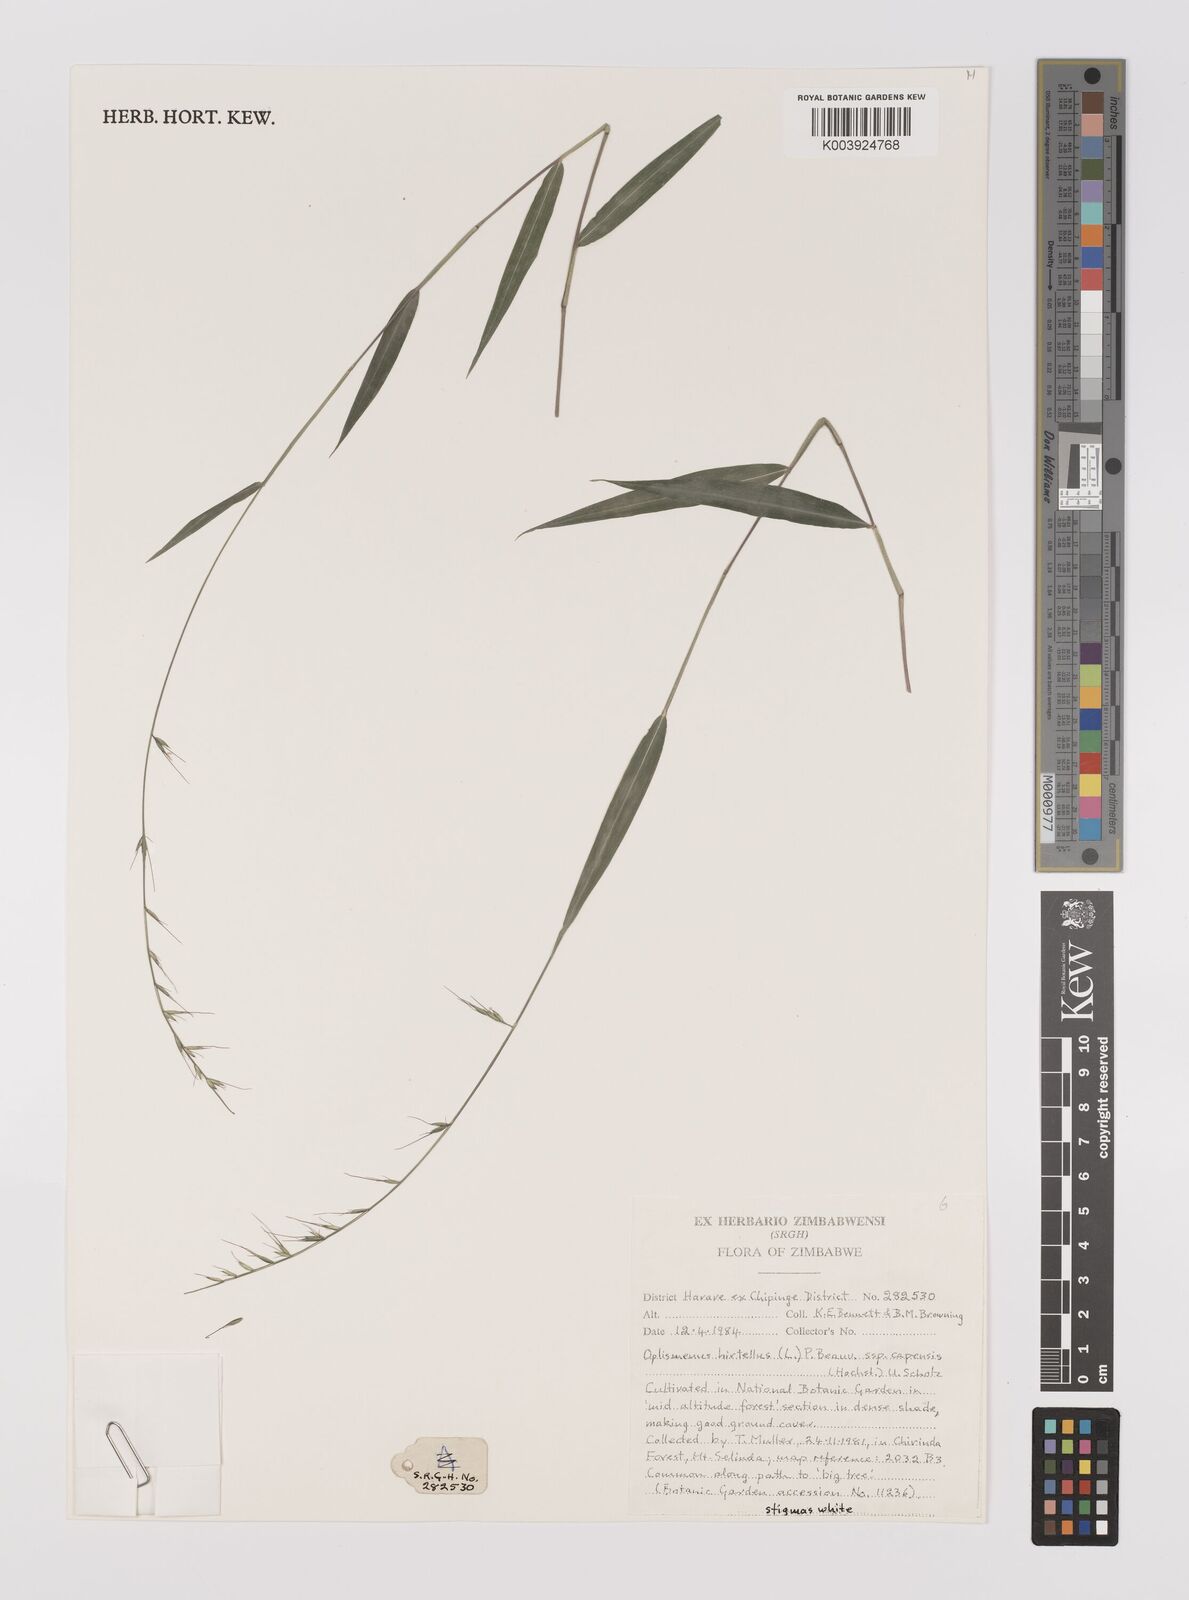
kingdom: Plantae
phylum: Tracheophyta
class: Liliopsida
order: Poales
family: Poaceae
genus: Oplismenus
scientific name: Oplismenus hirtellus
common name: Basketgrass
